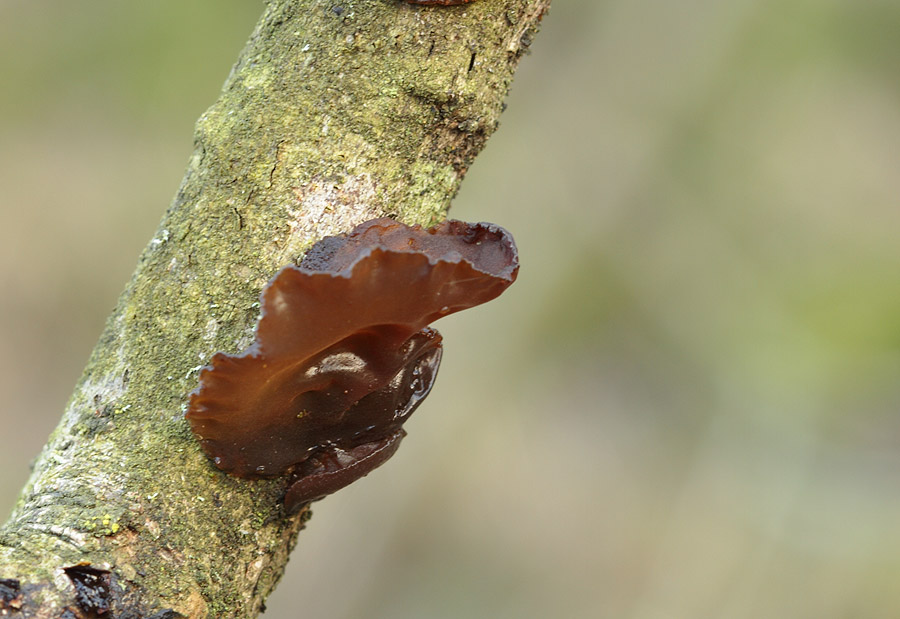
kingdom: Fungi
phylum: Basidiomycota
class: Agaricomycetes
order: Auriculariales
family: Auriculariaceae
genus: Exidia
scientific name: Exidia recisa
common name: pile-bævretop
